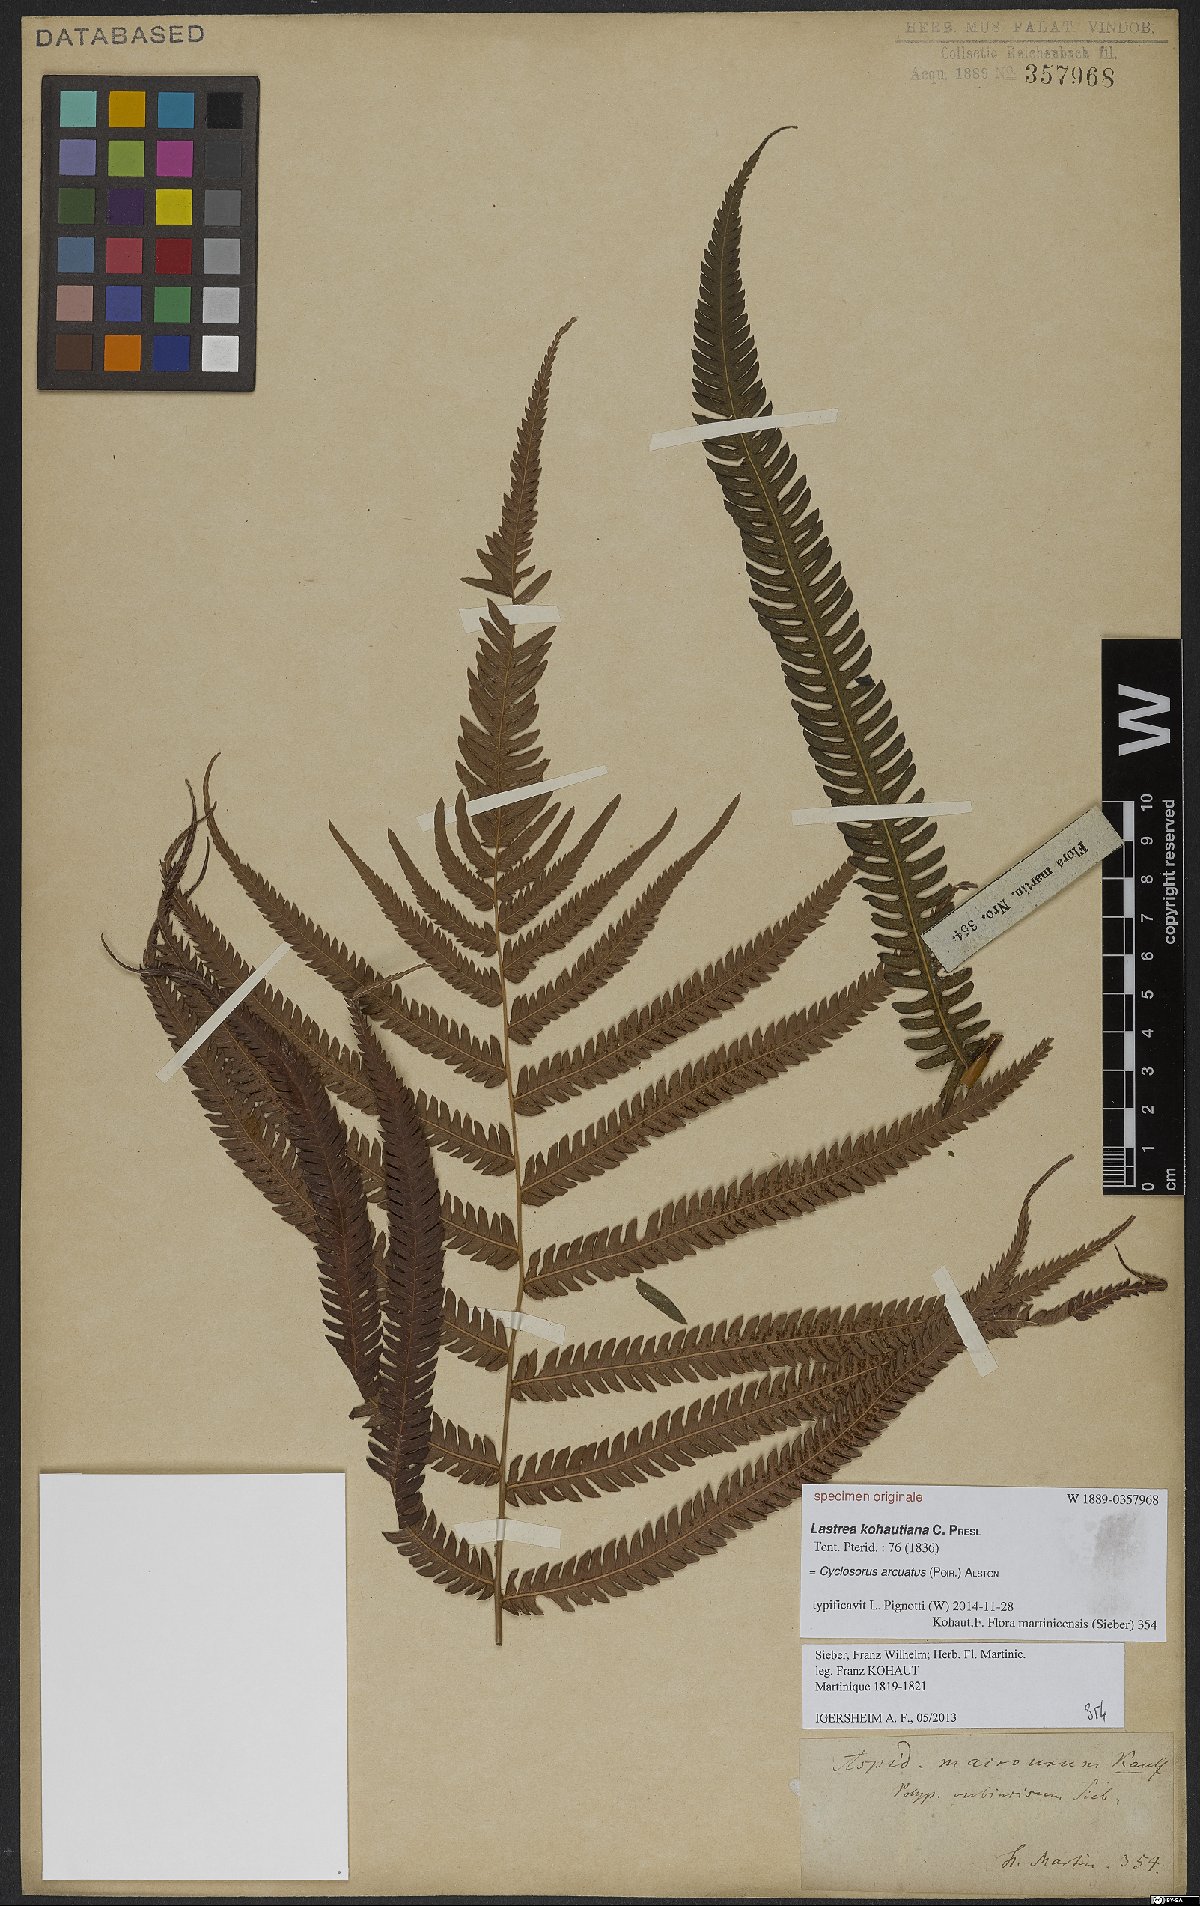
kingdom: Plantae
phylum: Tracheophyta
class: Polypodiopsida
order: Polypodiales
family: Pteridaceae
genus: Adiantum
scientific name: Adiantum philippense
